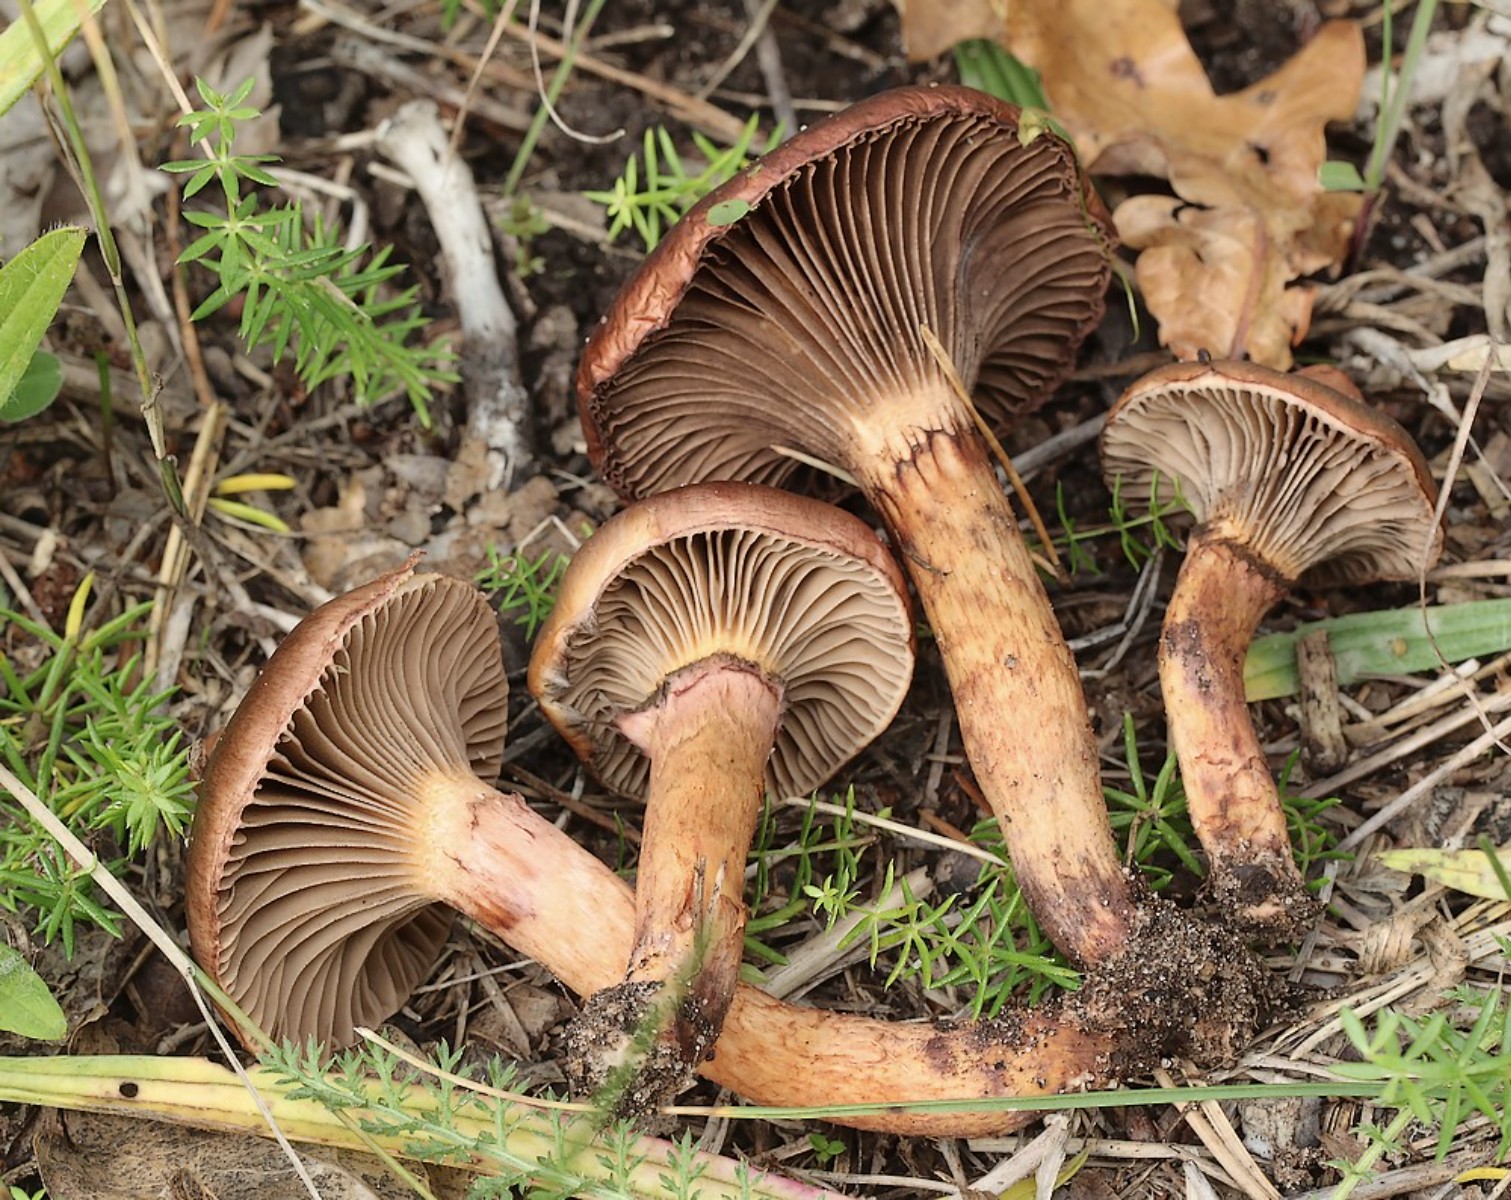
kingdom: Fungi
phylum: Basidiomycota
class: Agaricomycetes
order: Boletales
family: Gomphidiaceae
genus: Chroogomphus
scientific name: Chroogomphus rutilus
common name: brunrød slimslør
